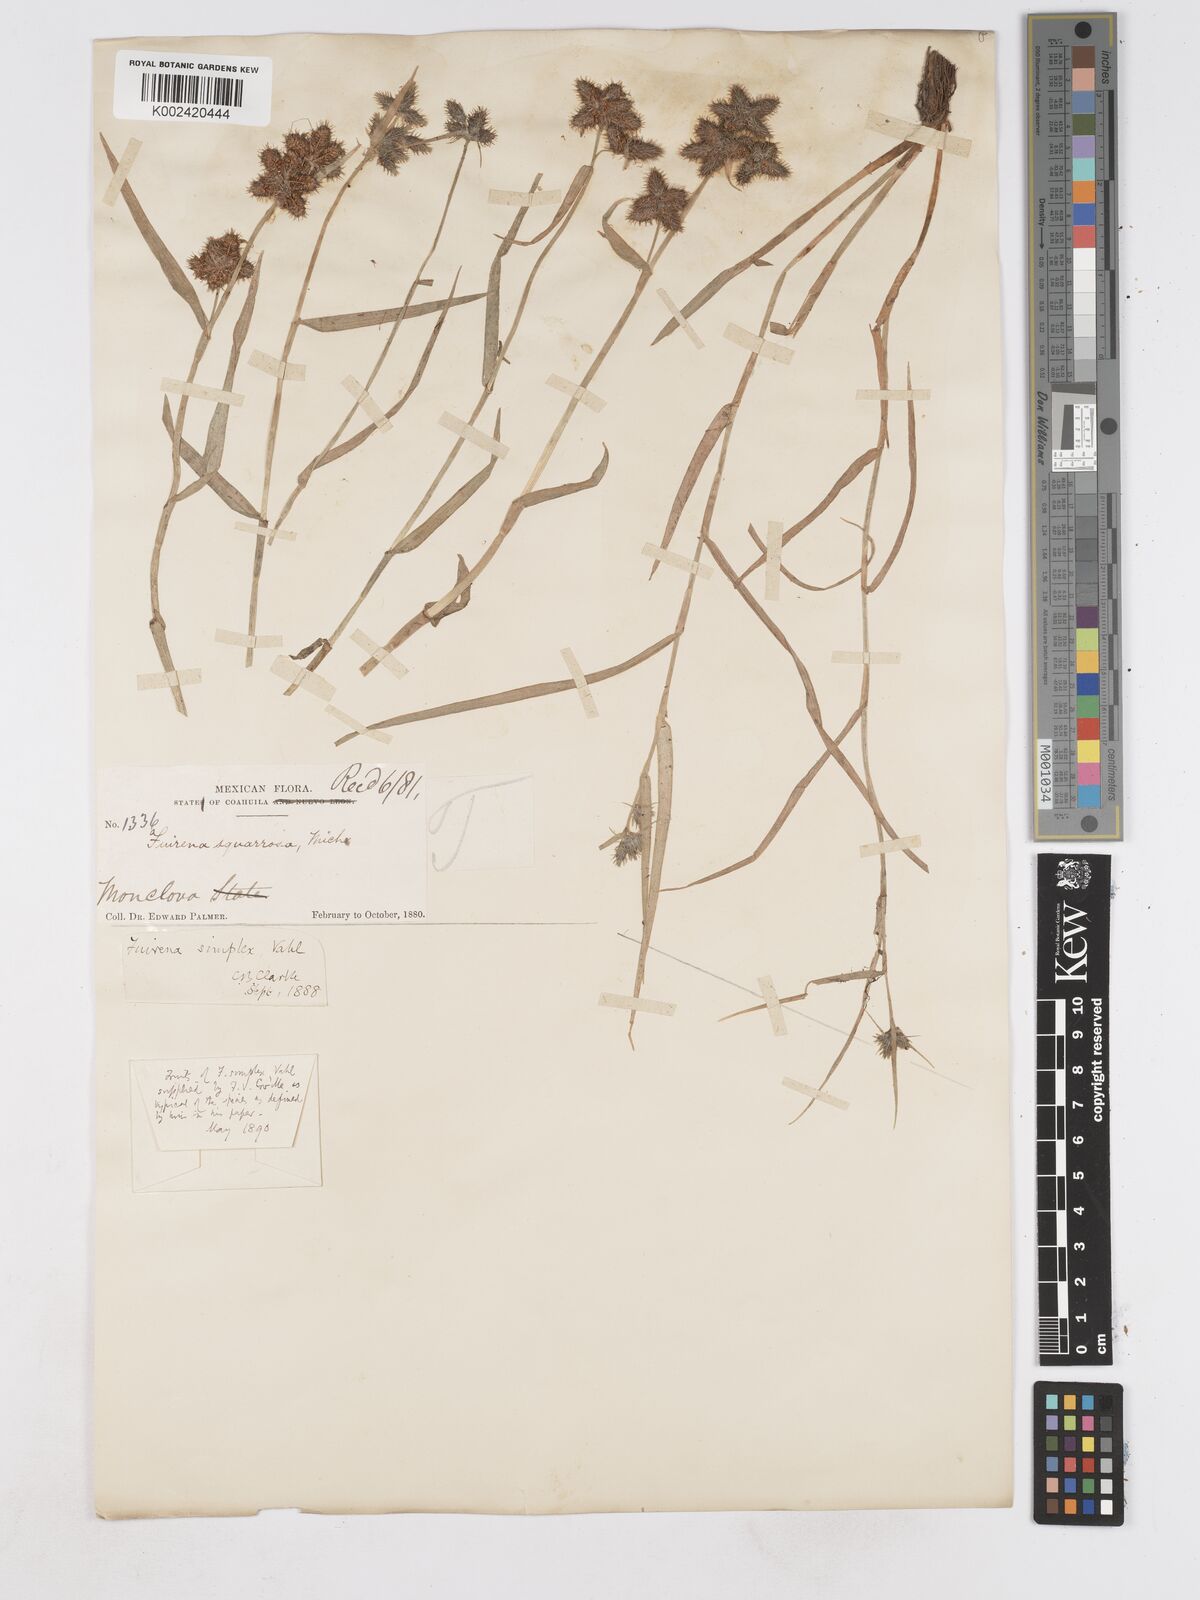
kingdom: Plantae
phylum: Tracheophyta
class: Liliopsida
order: Poales
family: Cyperaceae
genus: Fuirena
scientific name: Fuirena simplex
